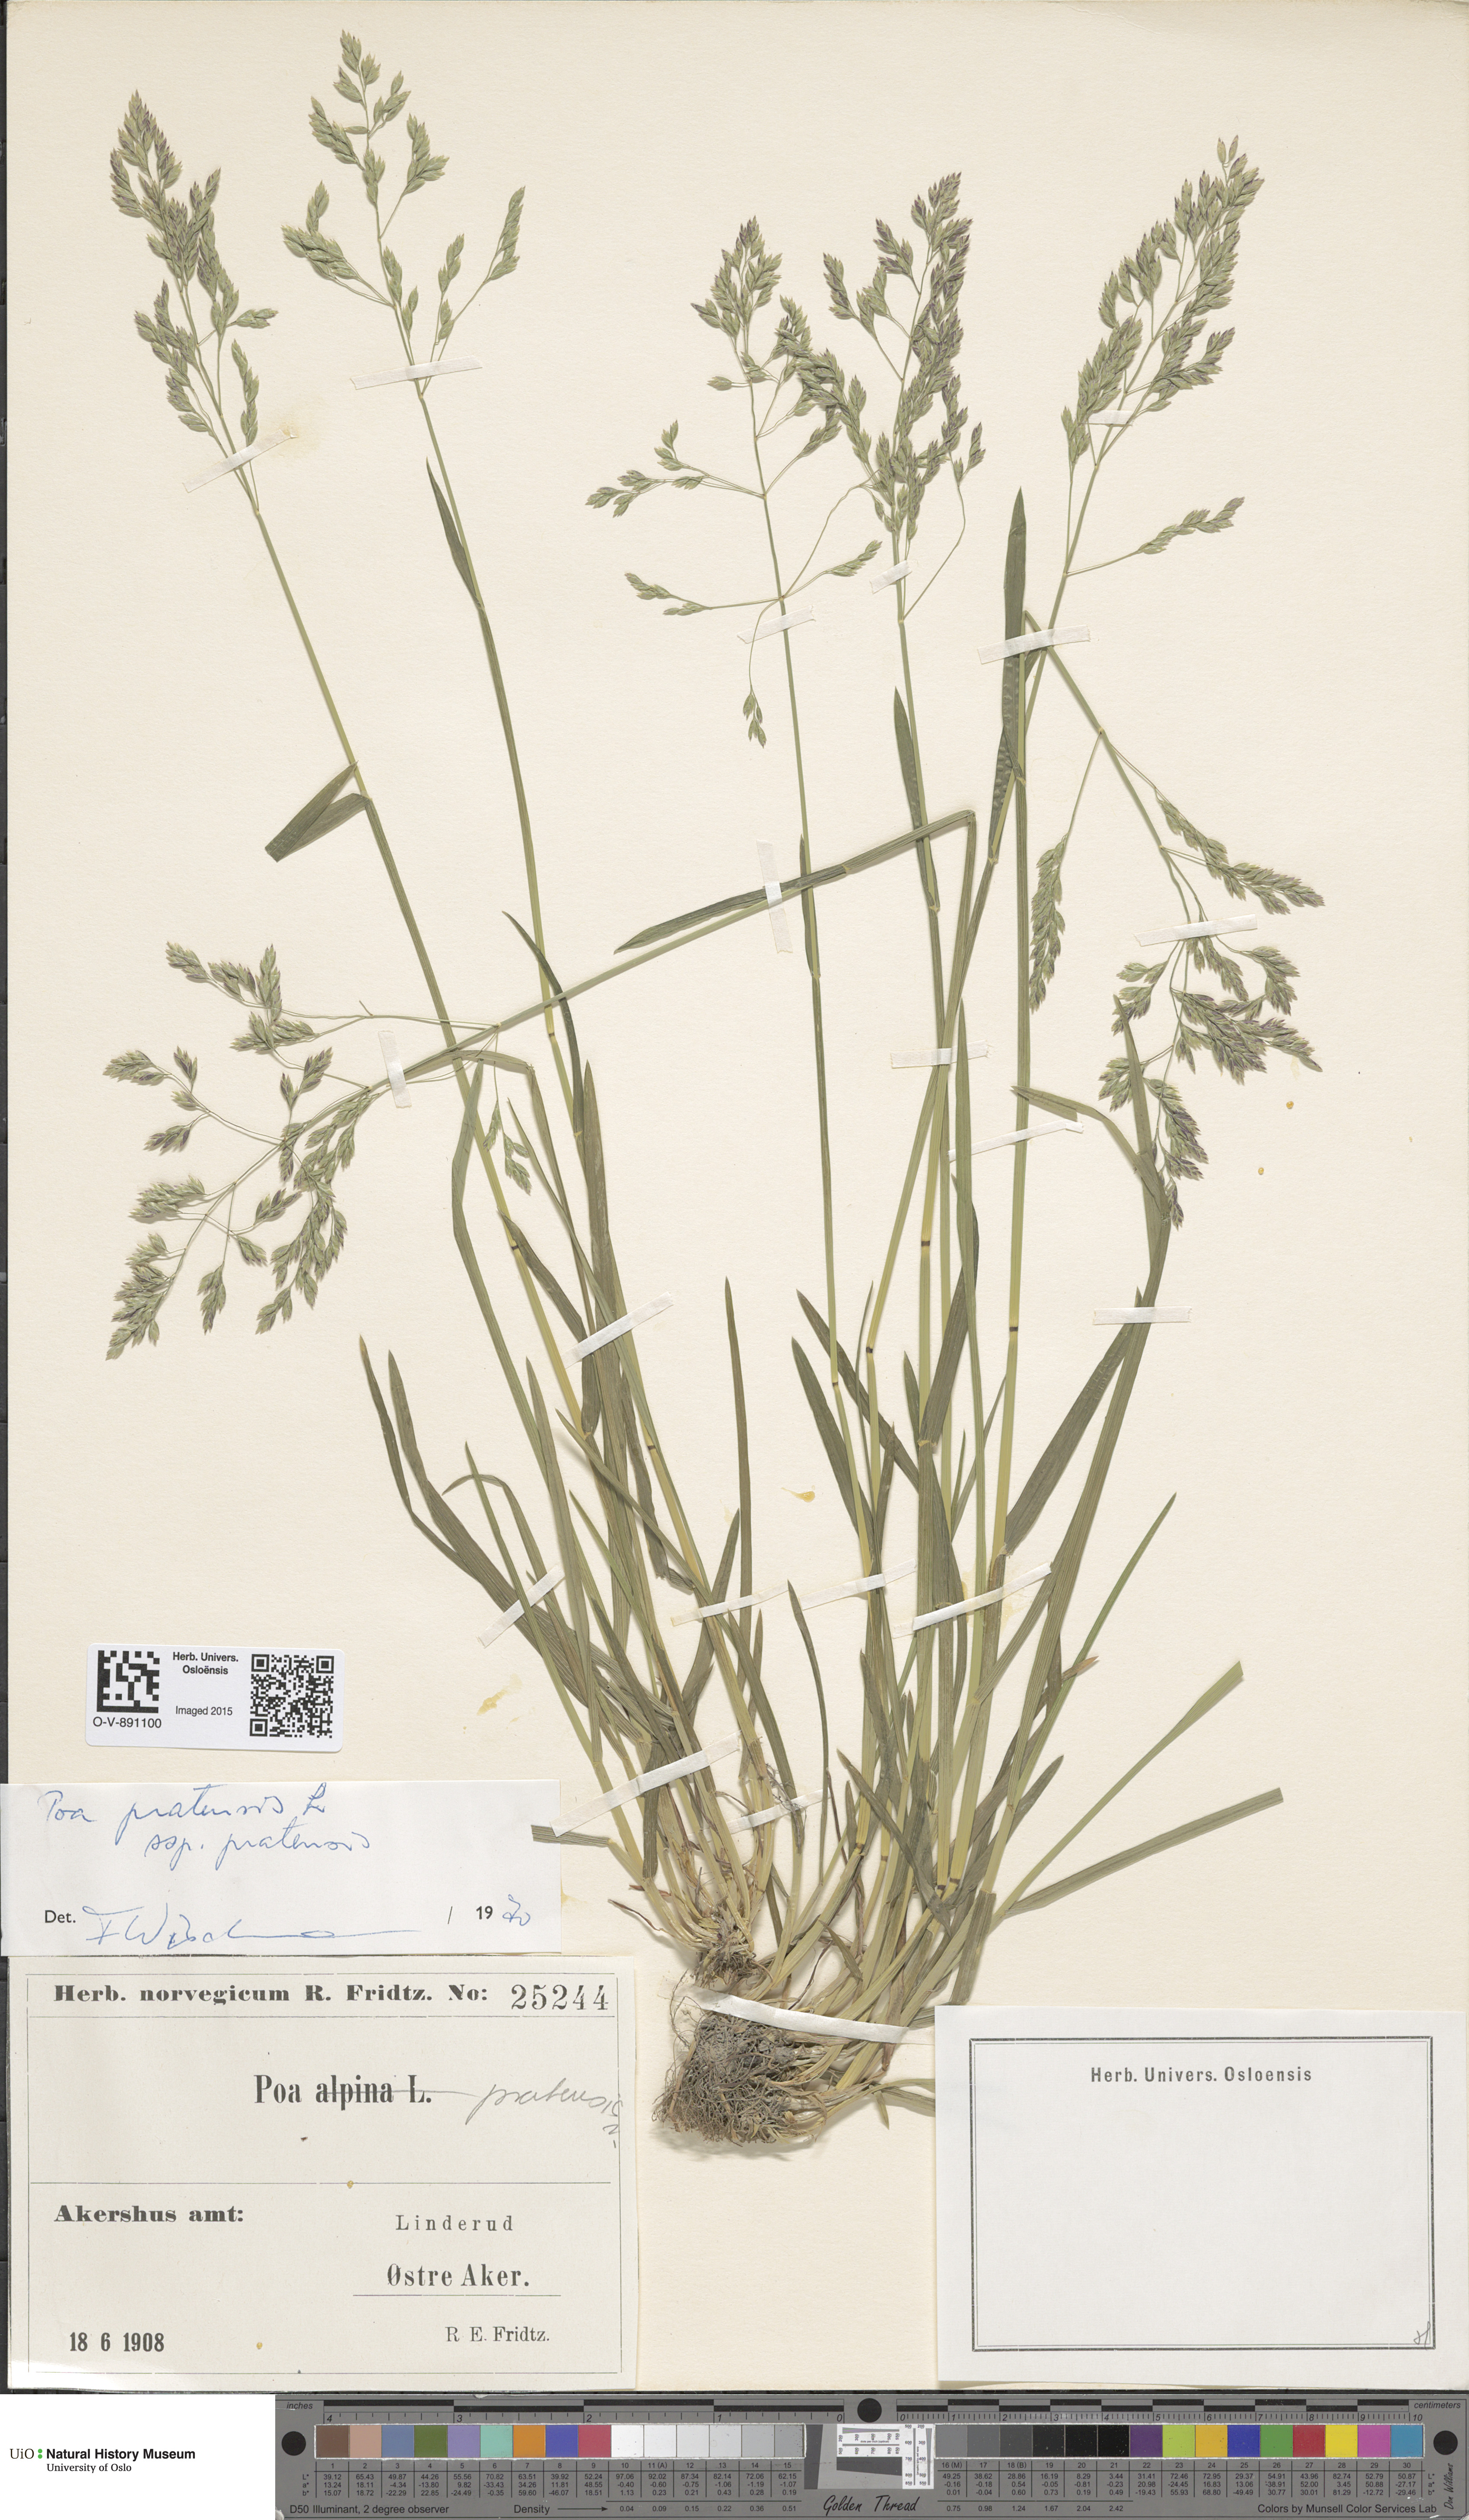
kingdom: Plantae
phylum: Tracheophyta
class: Liliopsida
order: Poales
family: Poaceae
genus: Poa
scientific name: Poa pratensis
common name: Kentucky bluegrass
